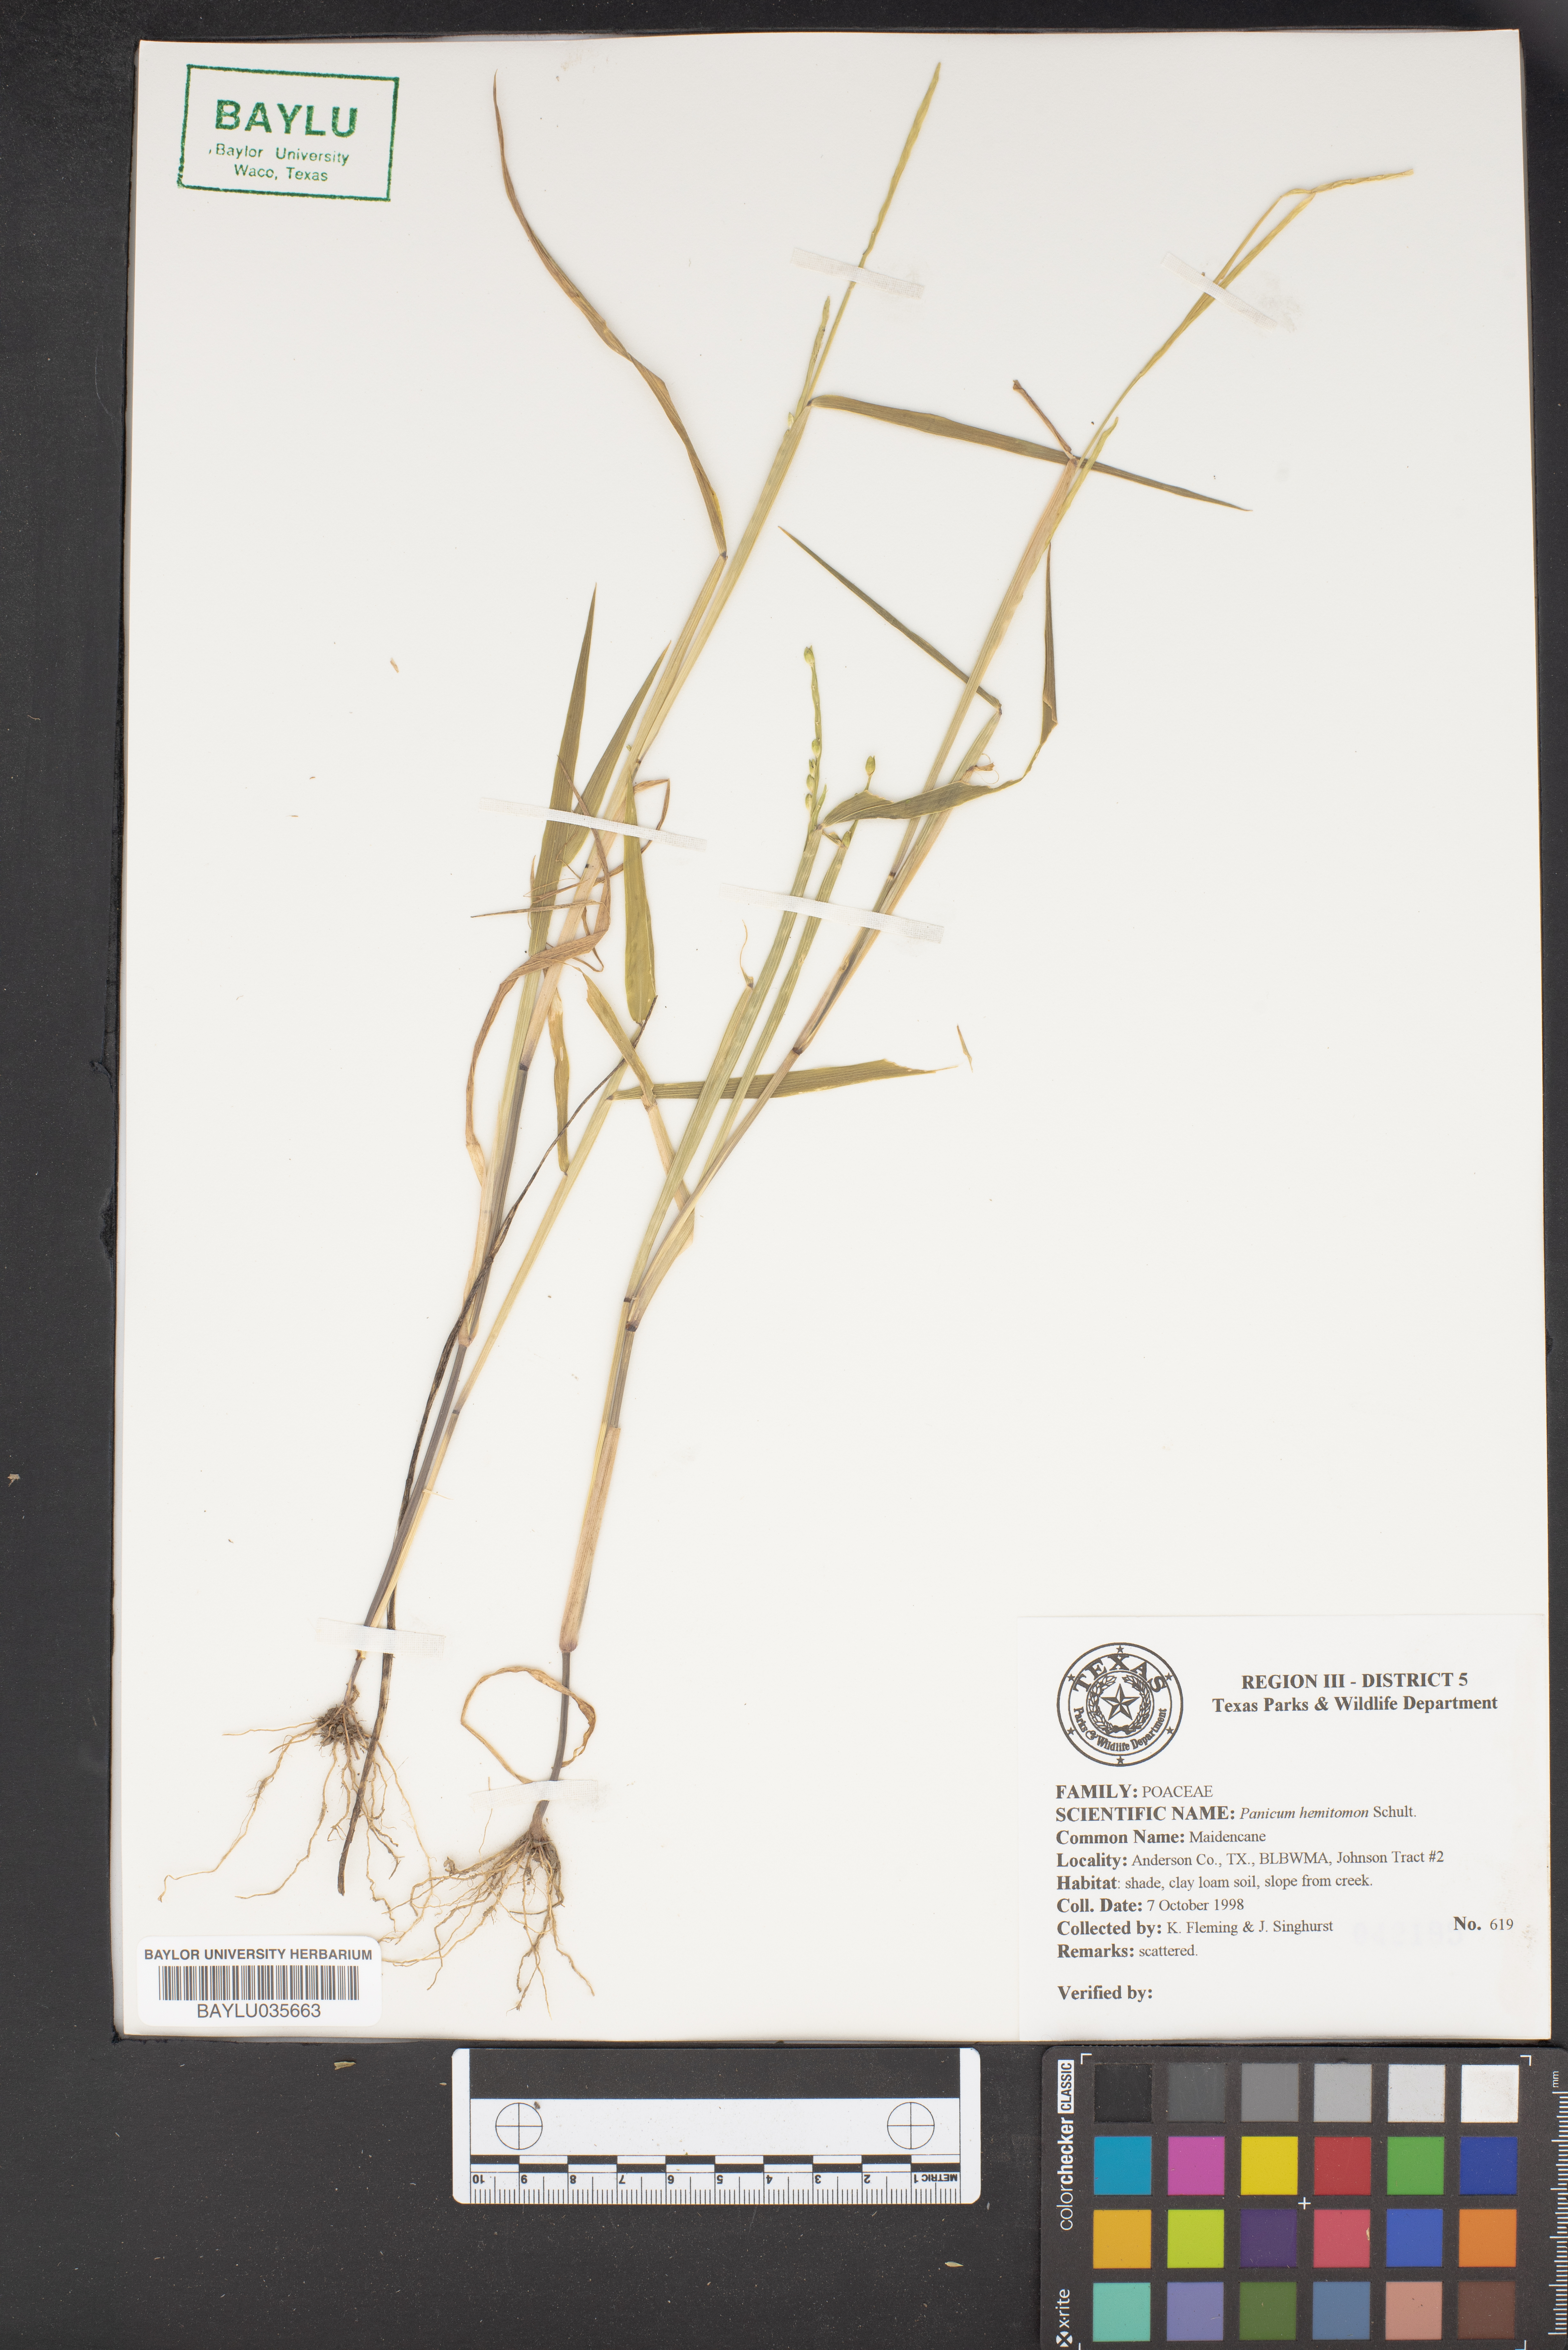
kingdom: Plantae
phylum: Tracheophyta
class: Liliopsida
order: Poales
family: Poaceae
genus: Panicum
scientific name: Panicum hemitomon
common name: Maidencane
